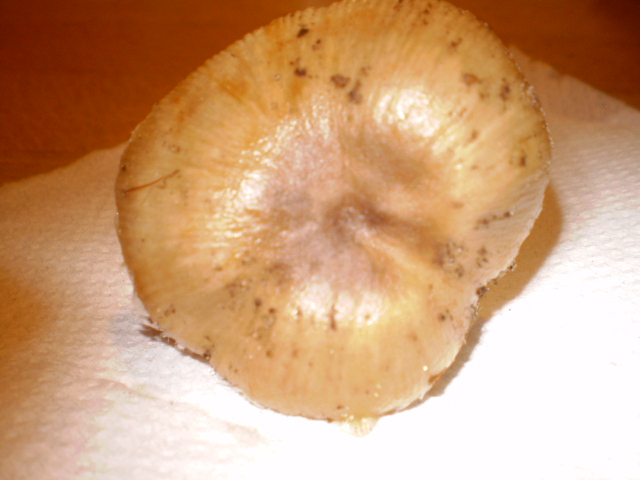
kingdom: Fungi
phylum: Basidiomycota
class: Agaricomycetes
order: Russulales
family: Russulaceae
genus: Russula
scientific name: Russula amoenolens
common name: skarp kam-skørhat
